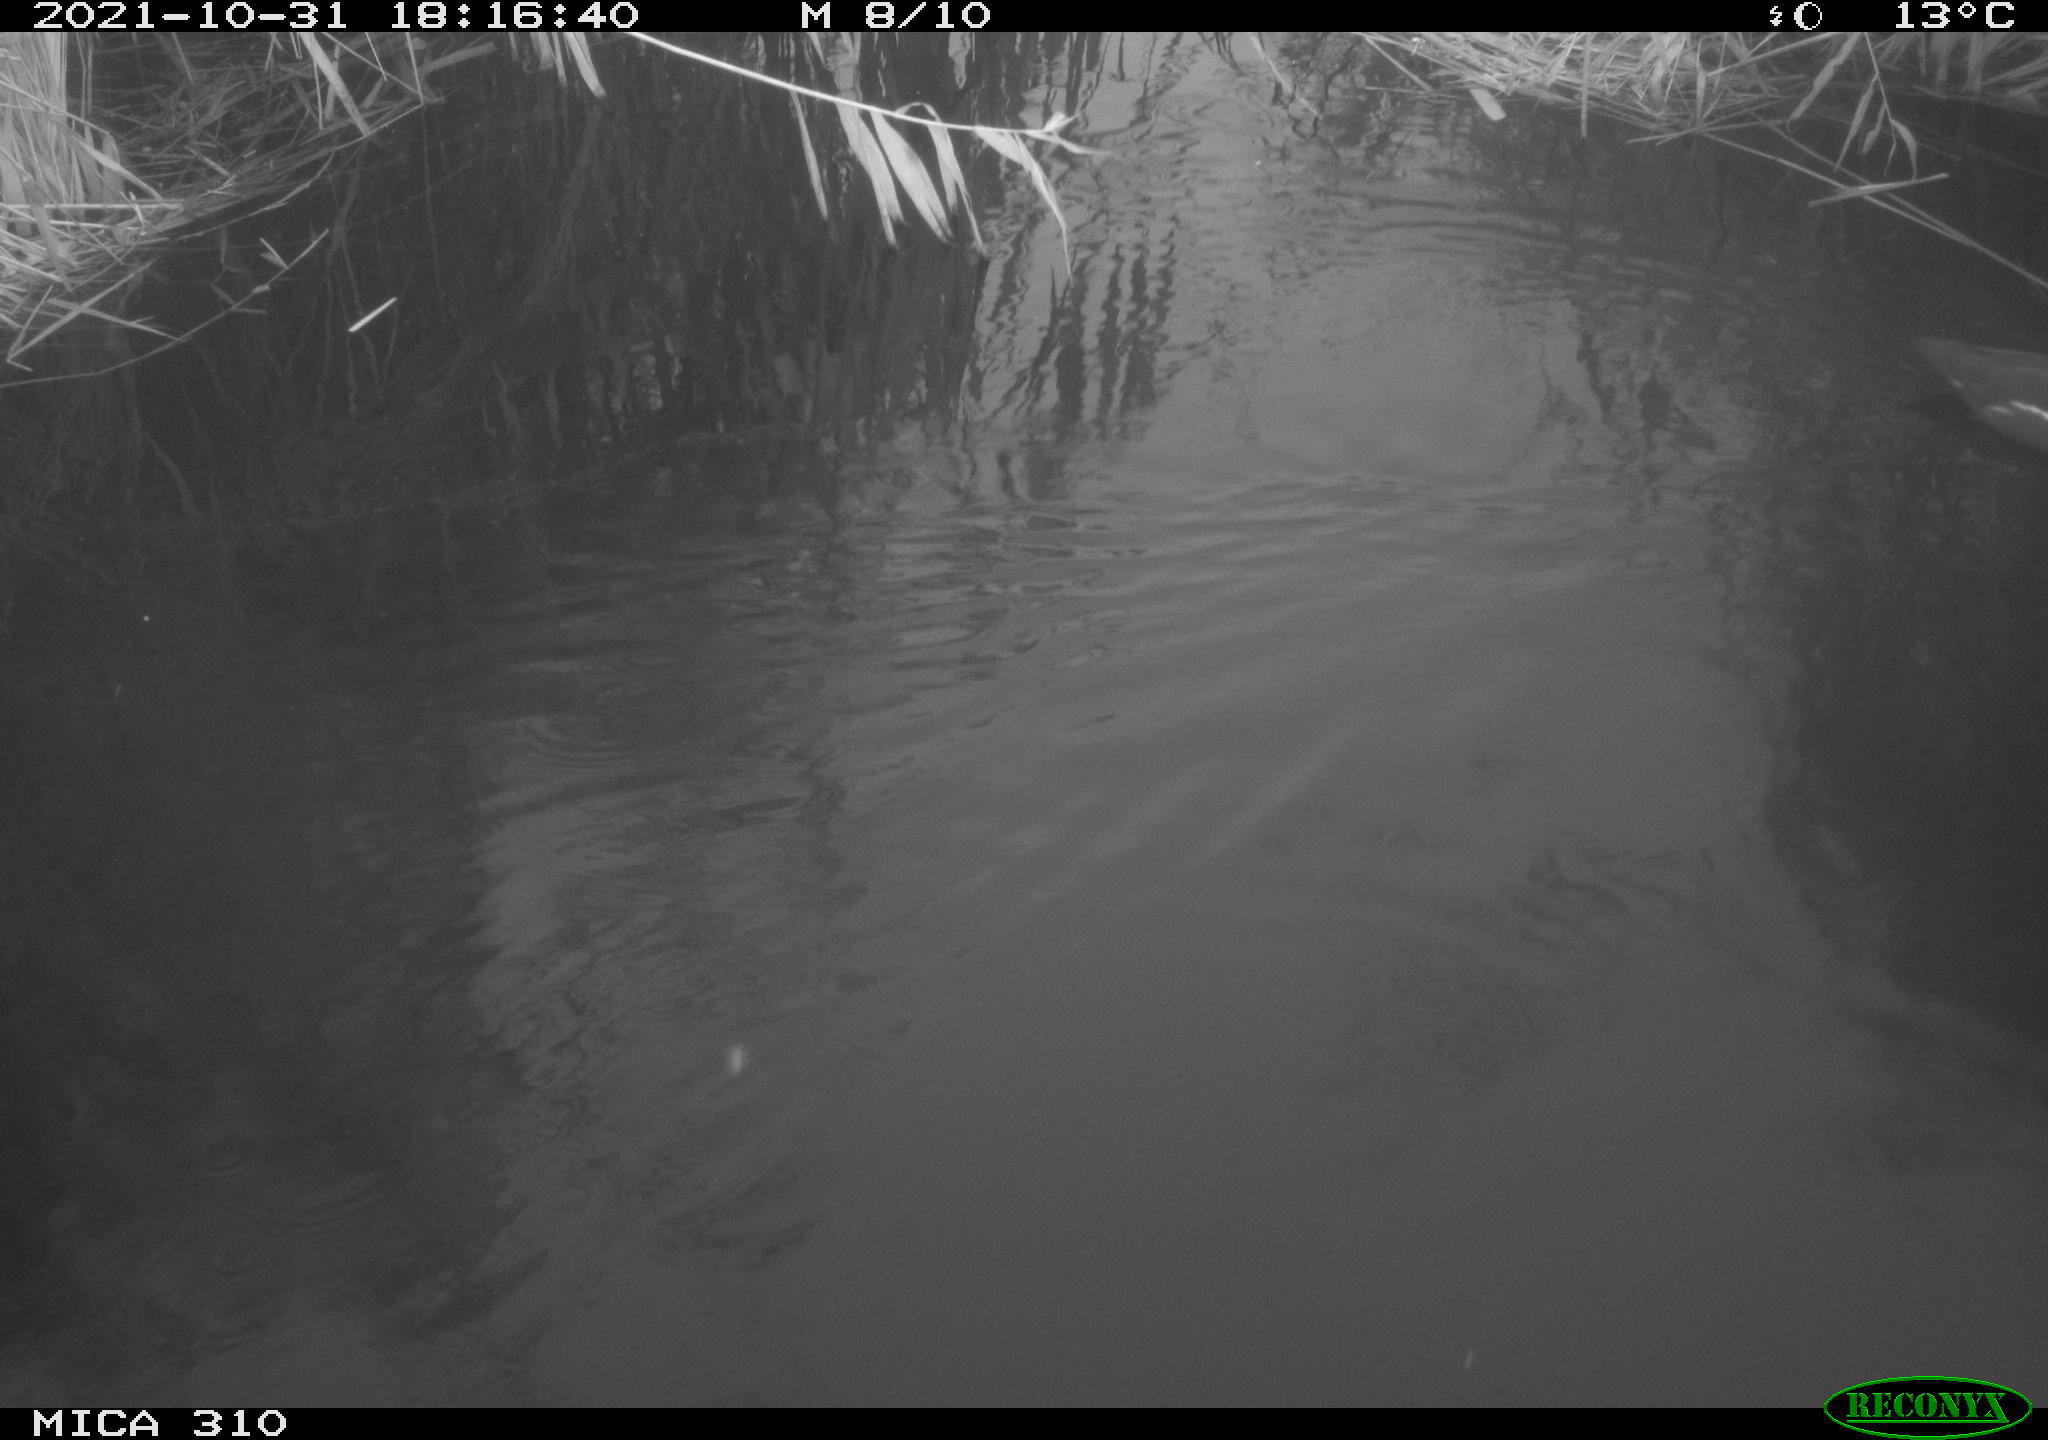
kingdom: Animalia
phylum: Chordata
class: Aves
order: Gruiformes
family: Rallidae
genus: Gallinula
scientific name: Gallinula chloropus
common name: Common moorhen
